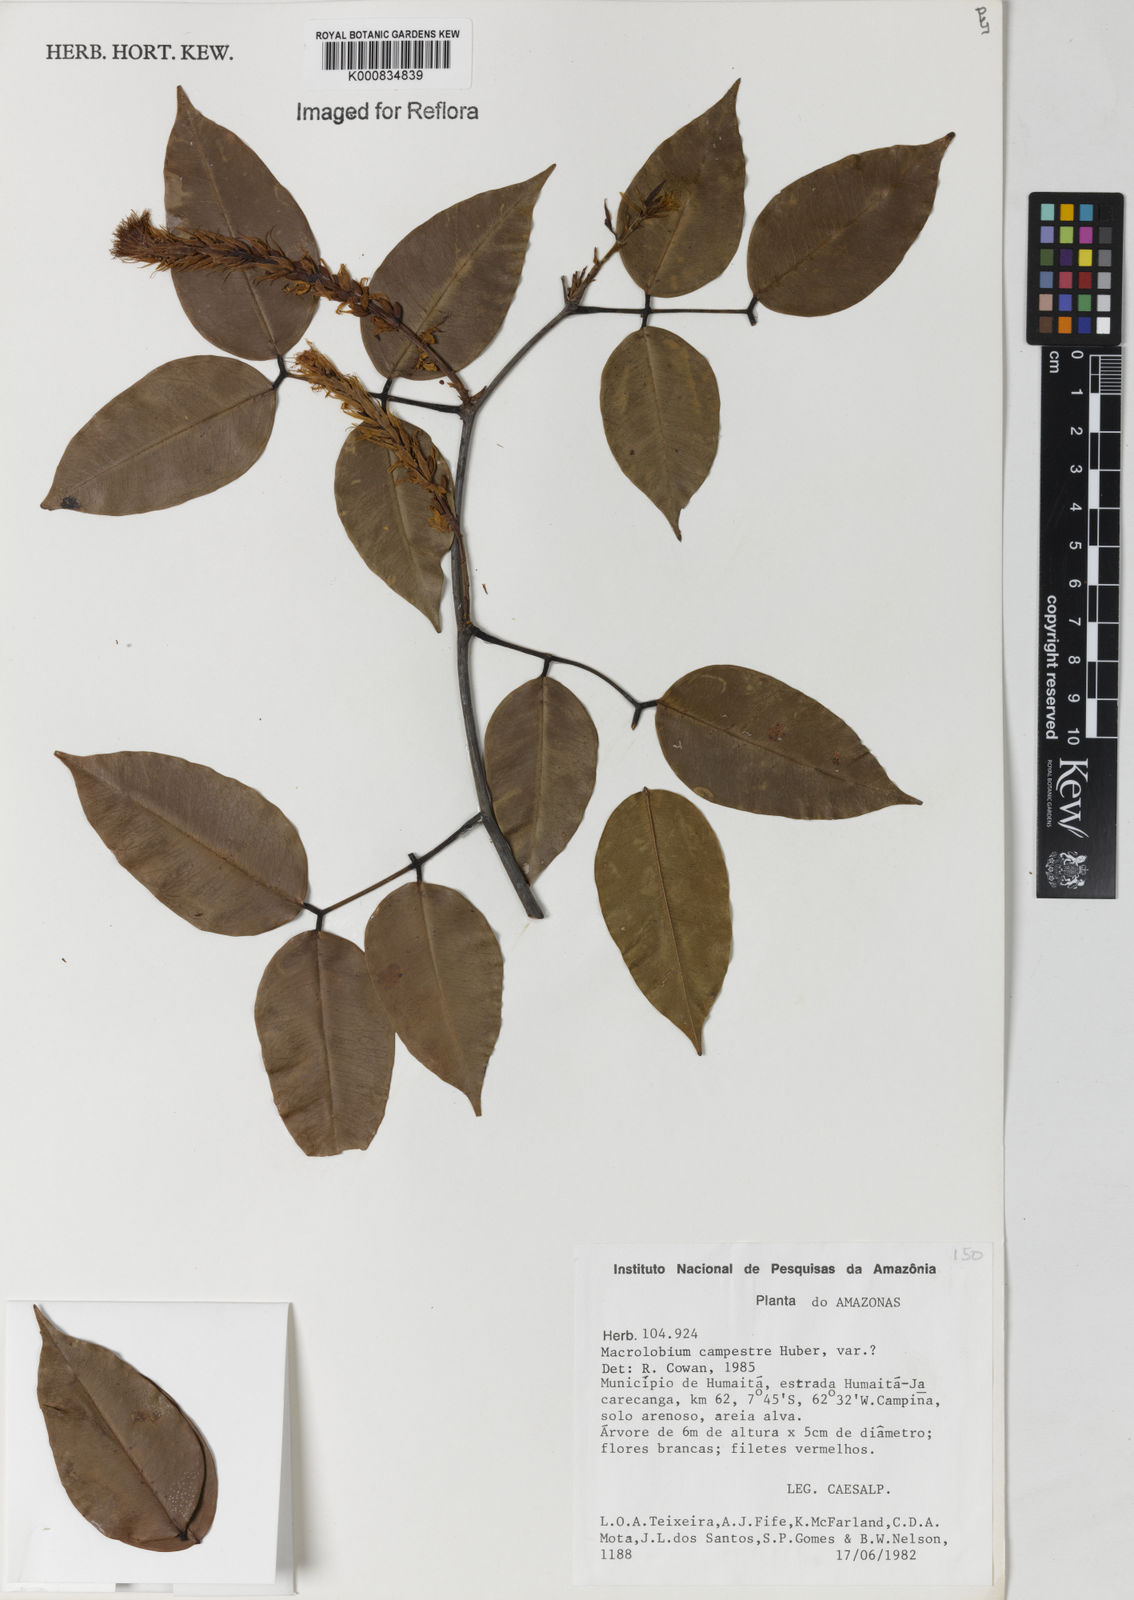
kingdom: Plantae
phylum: Tracheophyta
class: Magnoliopsida
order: Fabales
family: Fabaceae
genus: Macrolobium
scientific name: Macrolobium campestre
